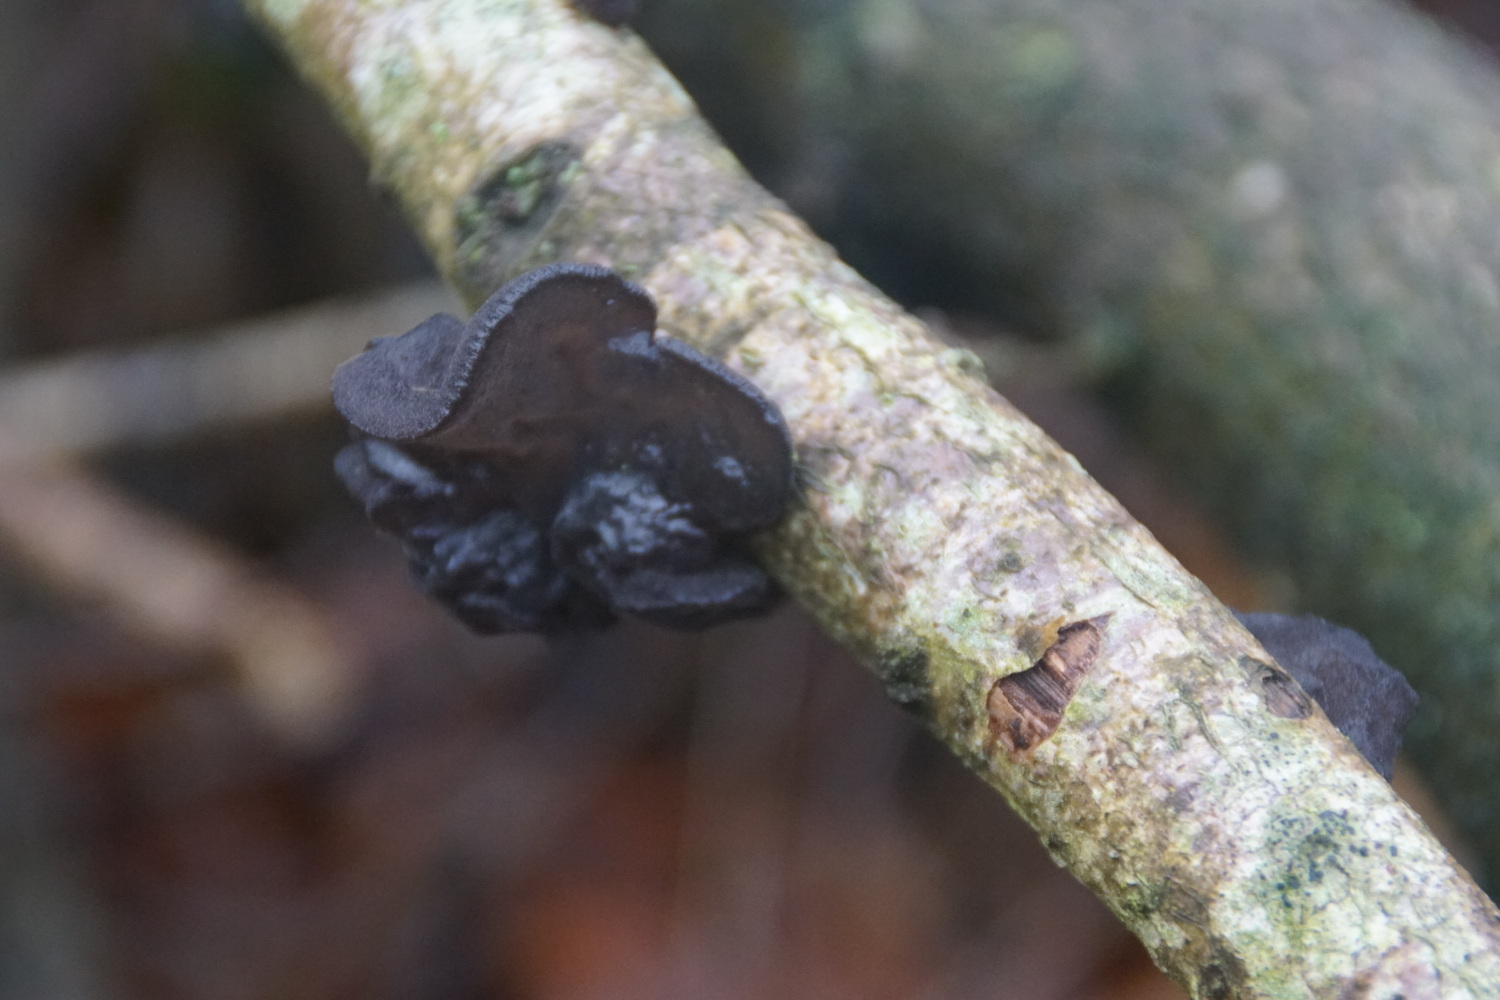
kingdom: Fungi
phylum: Basidiomycota
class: Agaricomycetes
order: Auriculariales
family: Auriculariaceae
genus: Exidia
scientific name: Exidia glandulosa
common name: ege-bævretop
